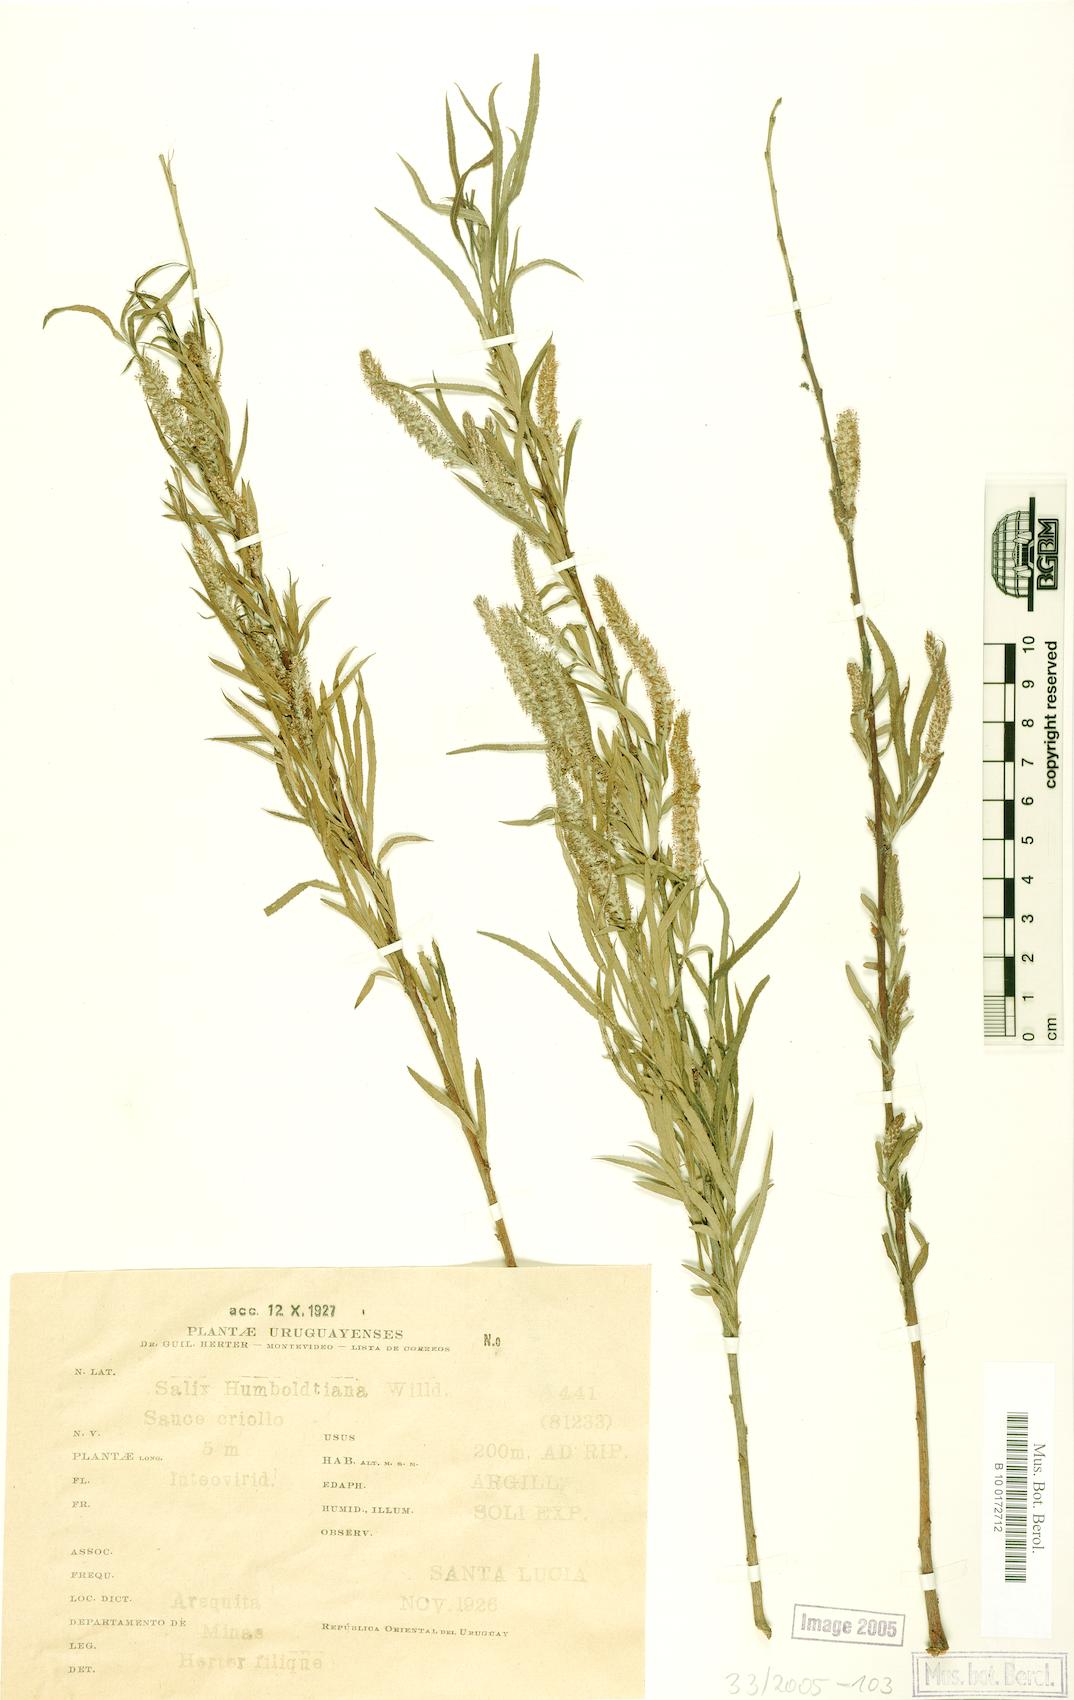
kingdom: Plantae
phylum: Tracheophyta
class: Magnoliopsida
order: Malpighiales
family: Salicaceae
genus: Salix
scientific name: Salix humboldtiana
